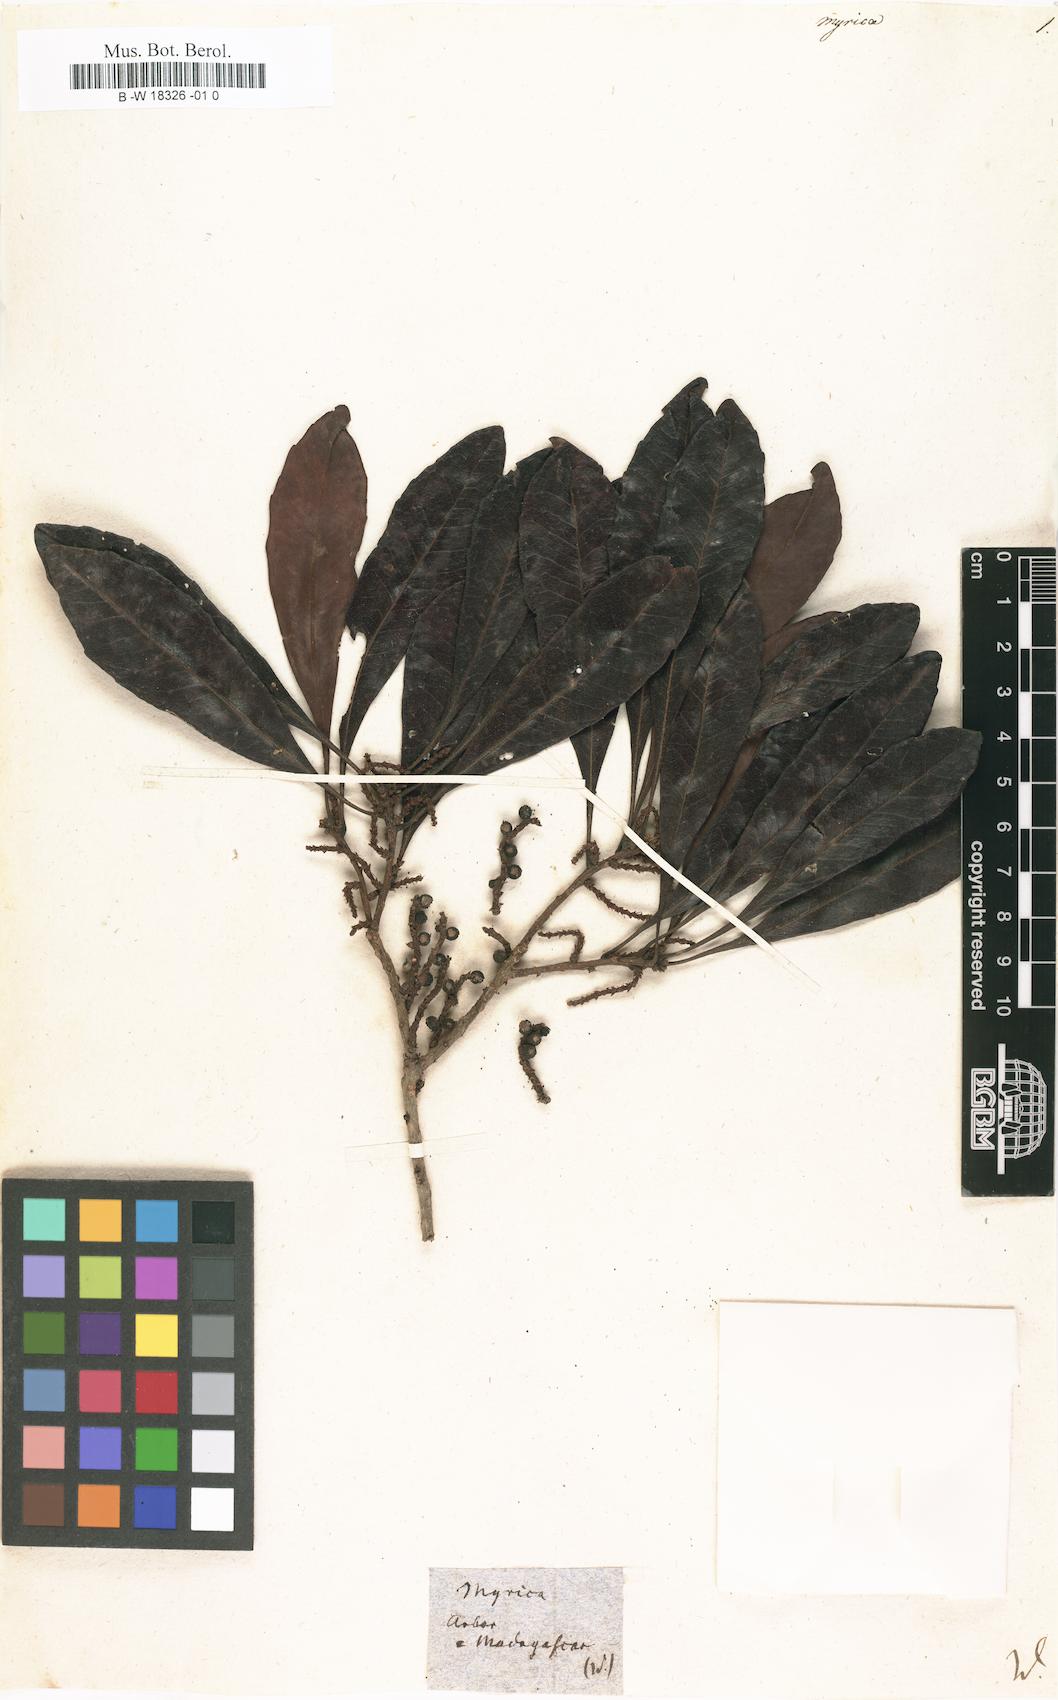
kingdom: Plantae
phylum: Tracheophyta
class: Magnoliopsida
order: Fagales
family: Myricaceae
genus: Myrica
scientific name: Myrica
